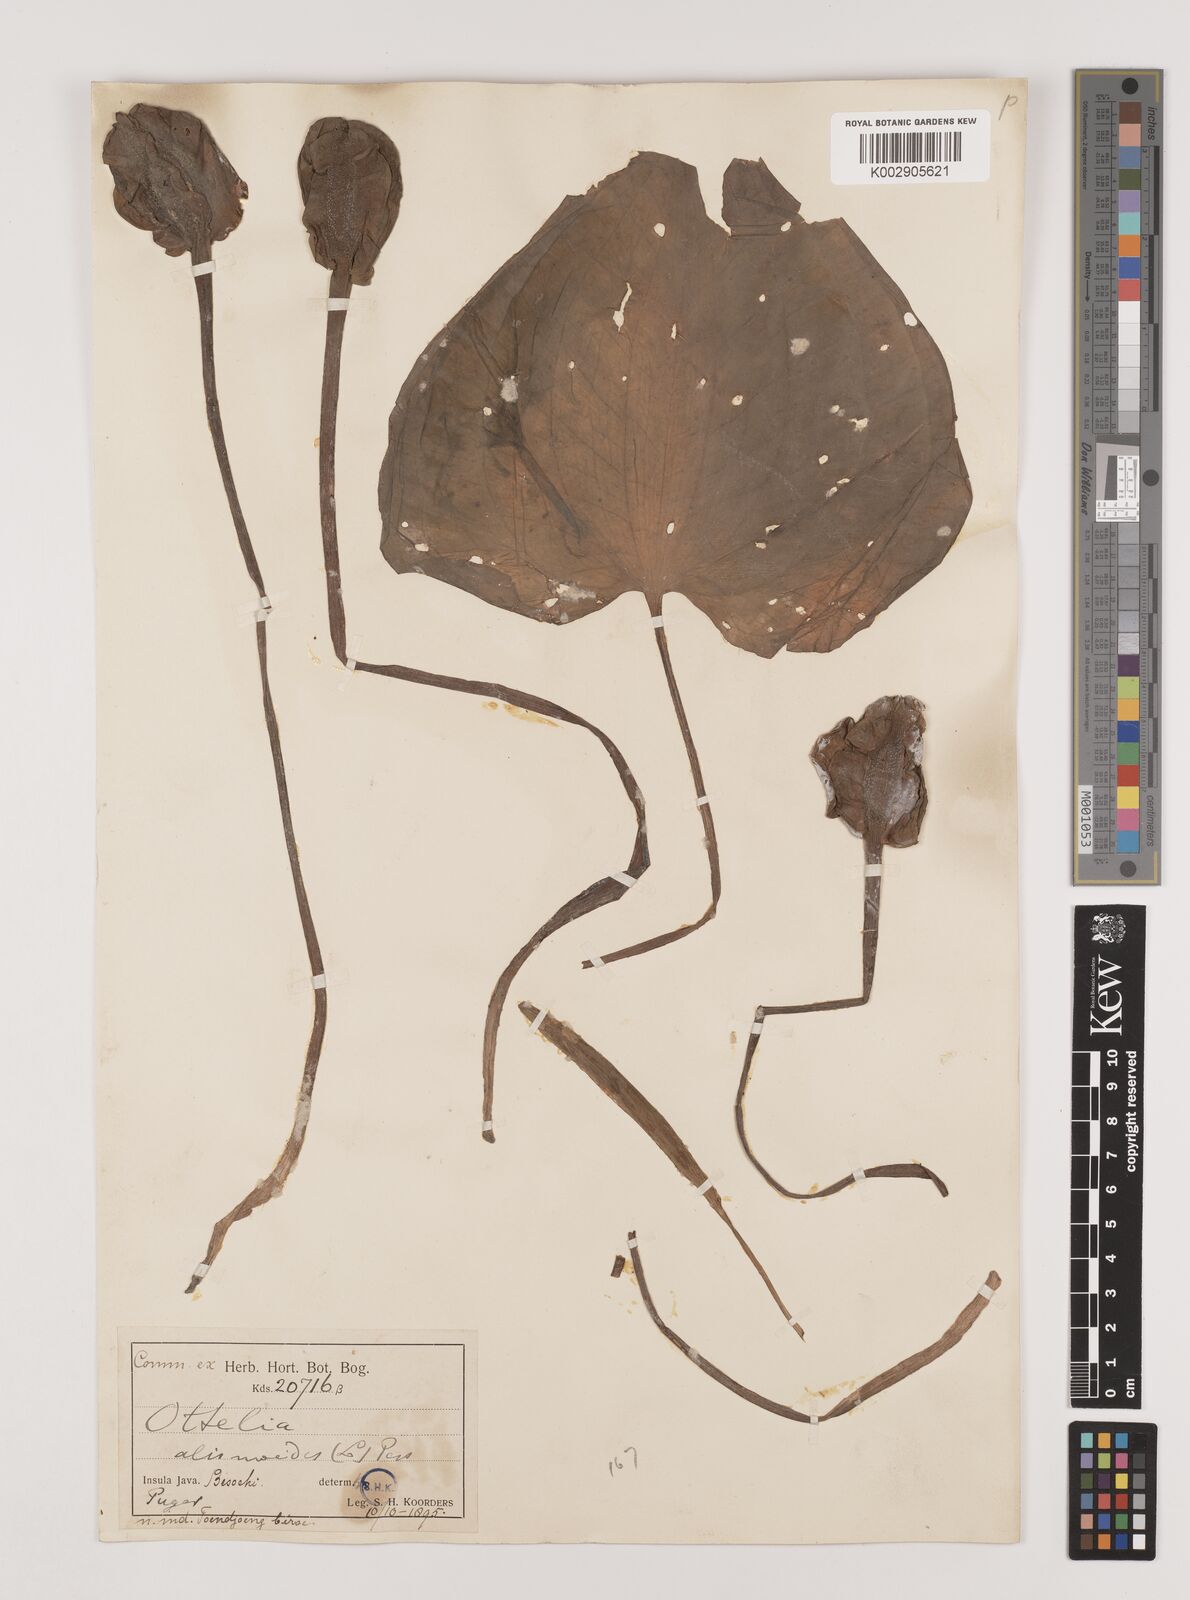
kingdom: Plantae
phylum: Tracheophyta
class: Liliopsida
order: Alismatales
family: Hydrocharitaceae
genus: Ottelia
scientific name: Ottelia alismoides
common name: Duck-lettuce
